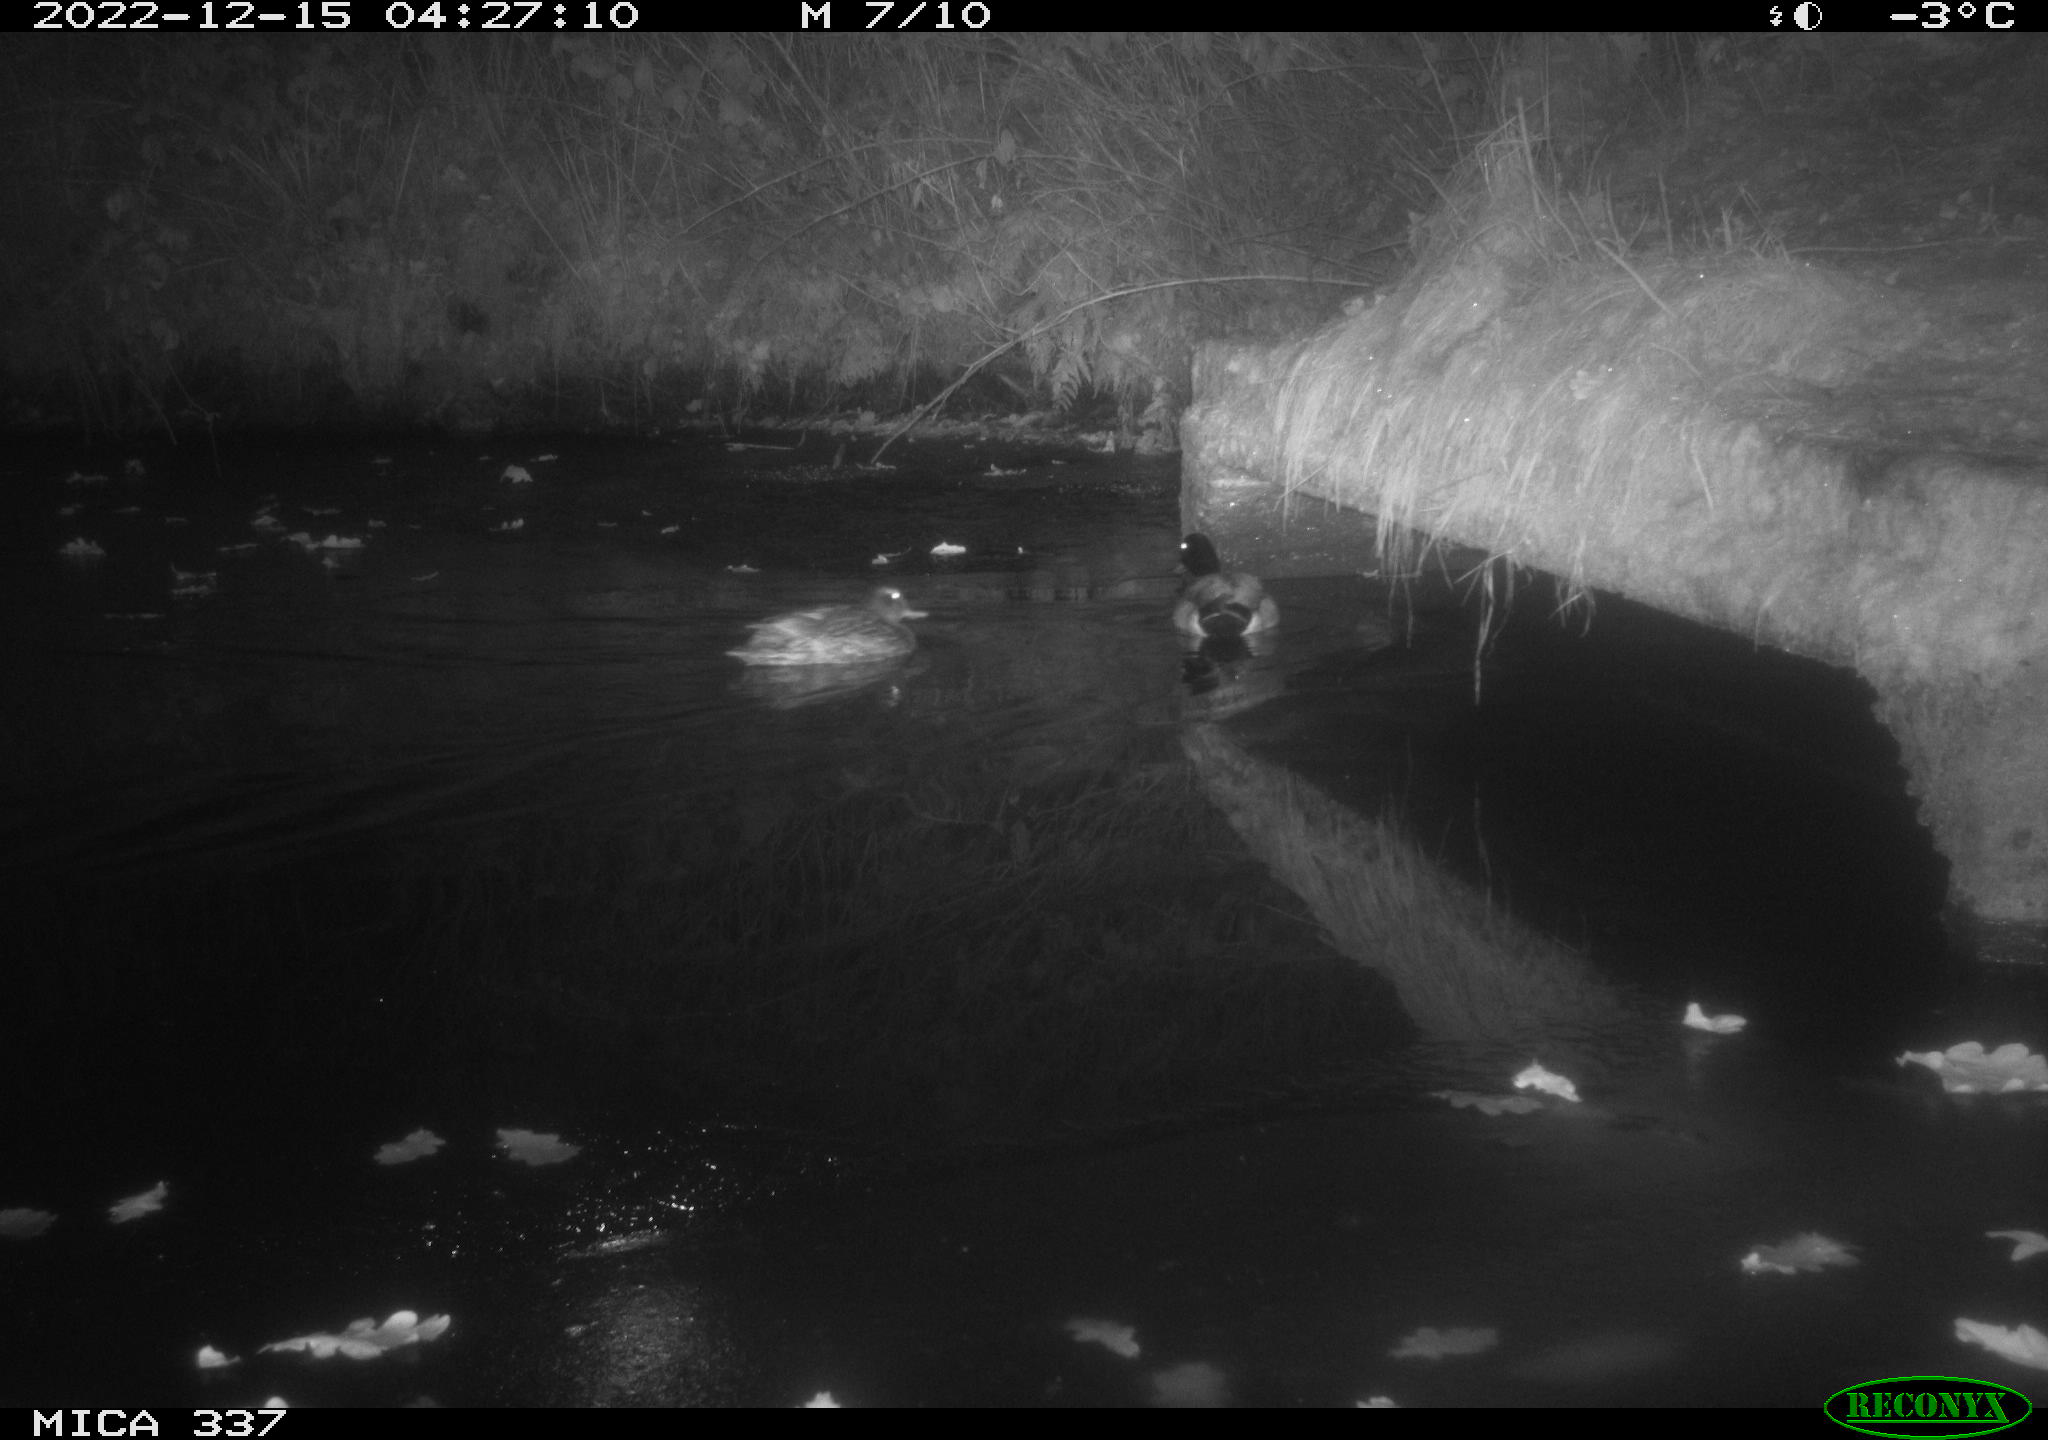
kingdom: Animalia
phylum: Chordata
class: Aves
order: Anseriformes
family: Anatidae
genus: Anas
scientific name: Anas platyrhynchos
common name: Mallard
